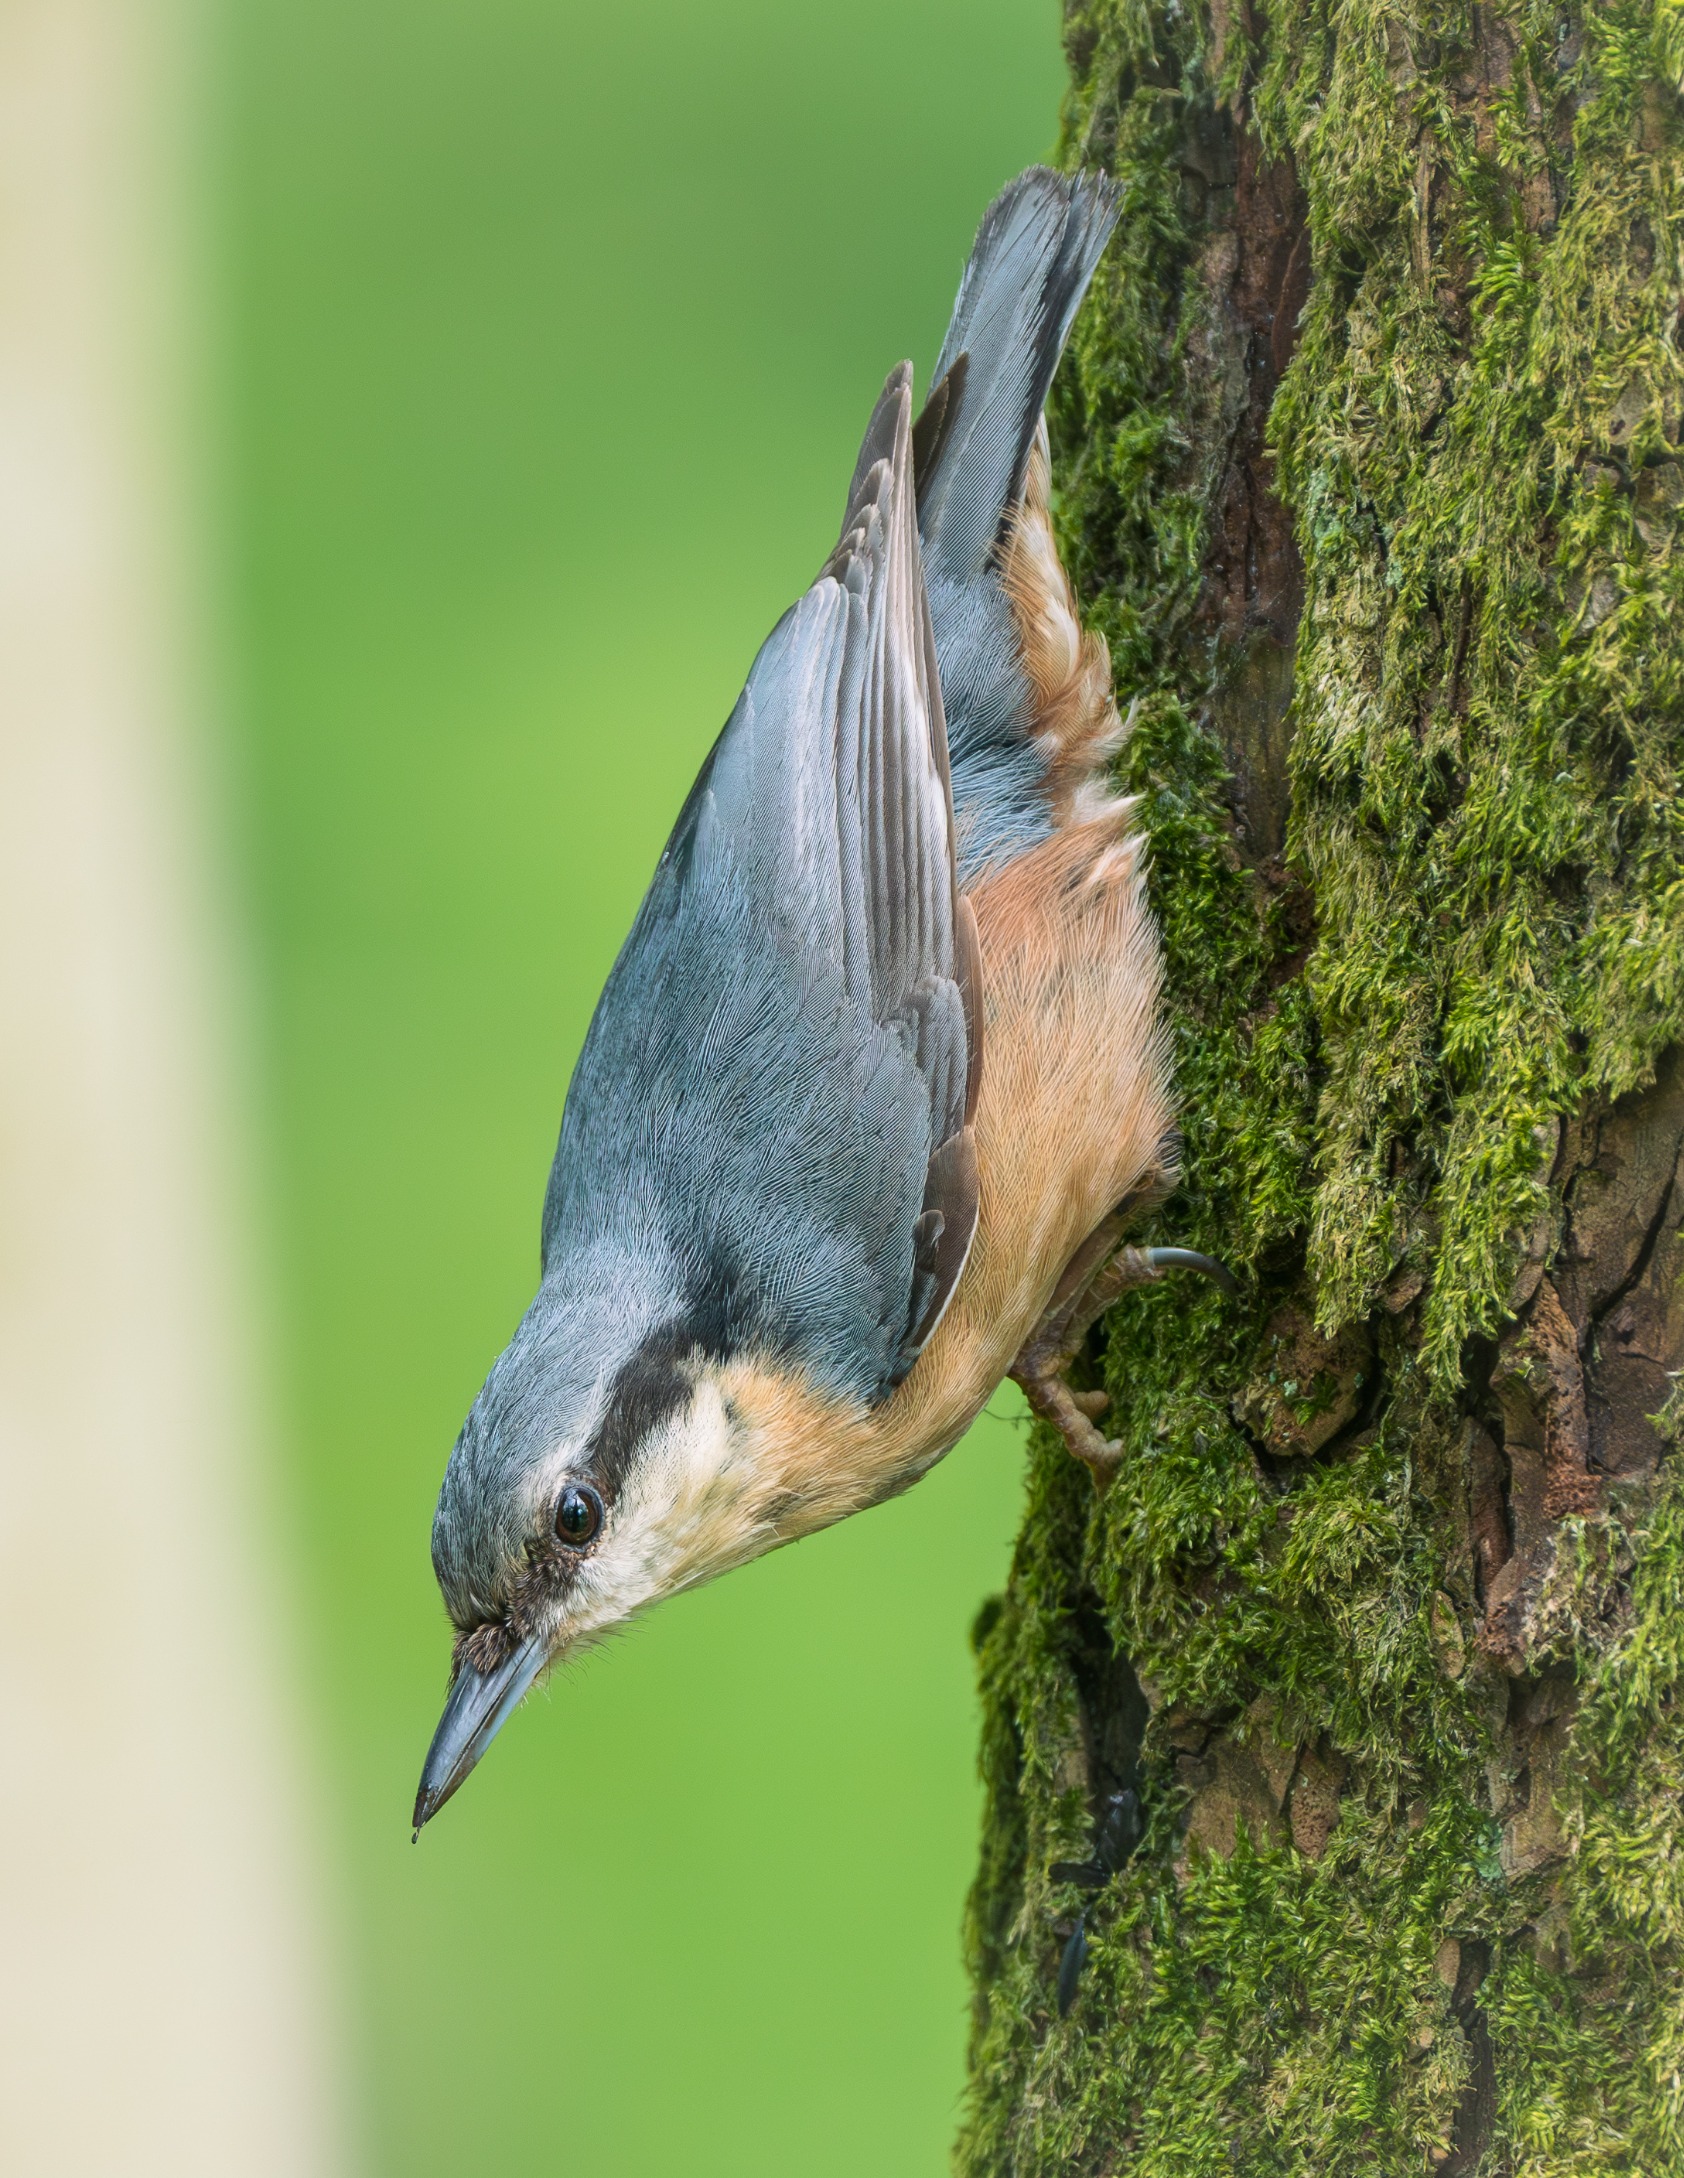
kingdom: Animalia
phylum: Chordata
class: Aves
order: Passeriformes
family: Sittidae
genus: Sitta
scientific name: Sitta europaea
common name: Spætmejse
